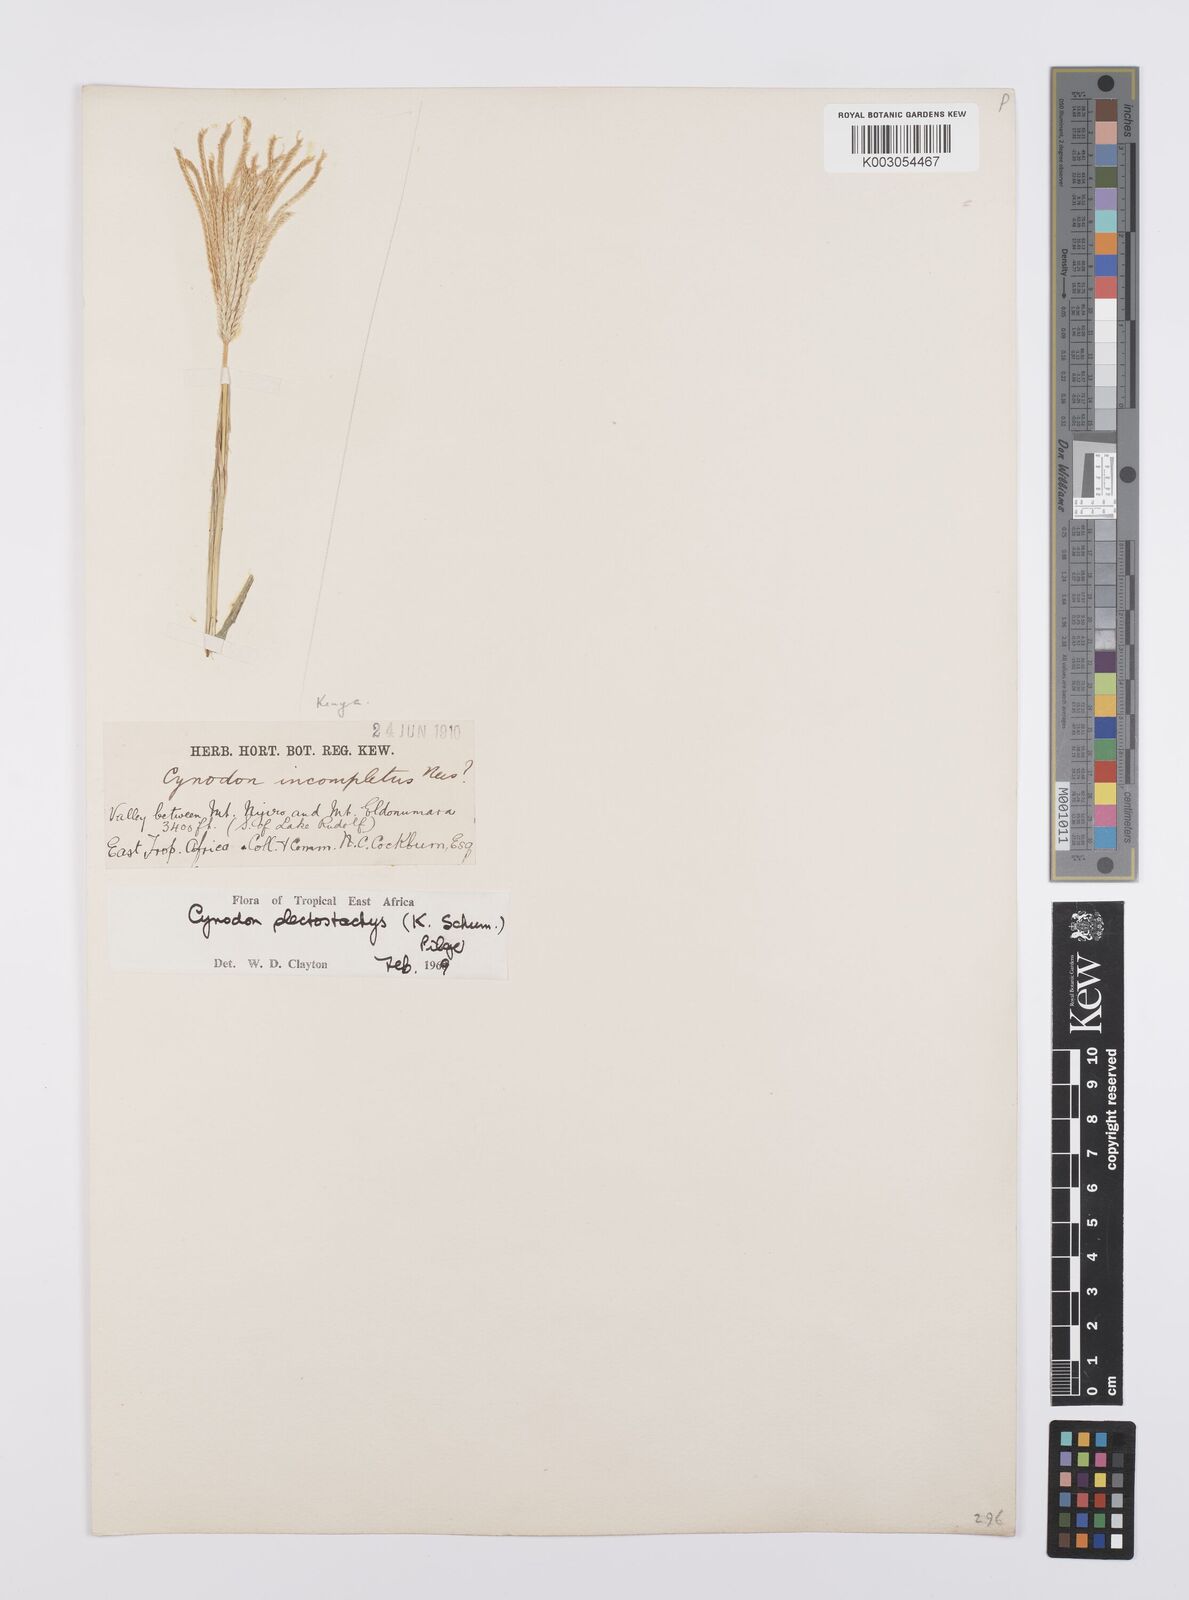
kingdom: Plantae
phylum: Tracheophyta
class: Liliopsida
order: Poales
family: Poaceae
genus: Cynodon
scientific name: Cynodon plectostachyus
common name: Stargrass
